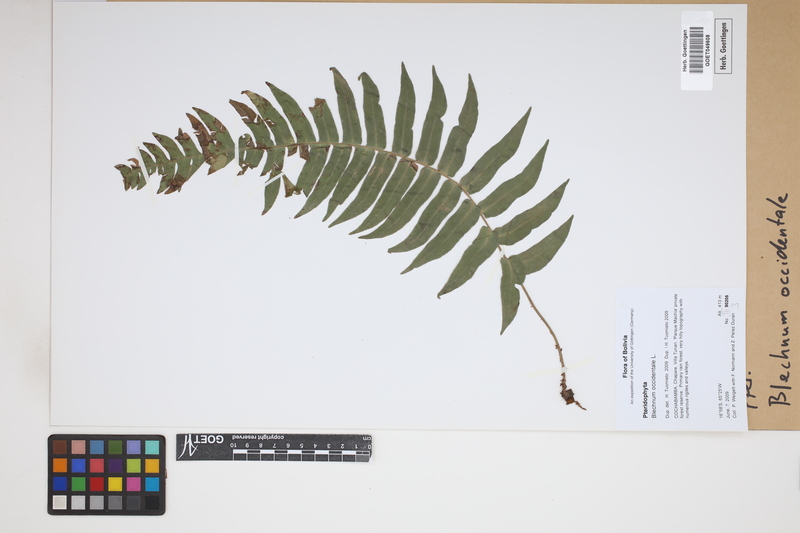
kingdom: Plantae
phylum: Tracheophyta
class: Polypodiopsida
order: Polypodiales
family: Blechnaceae
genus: Blechnum
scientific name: Blechnum occidentale
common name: Hammock fern
